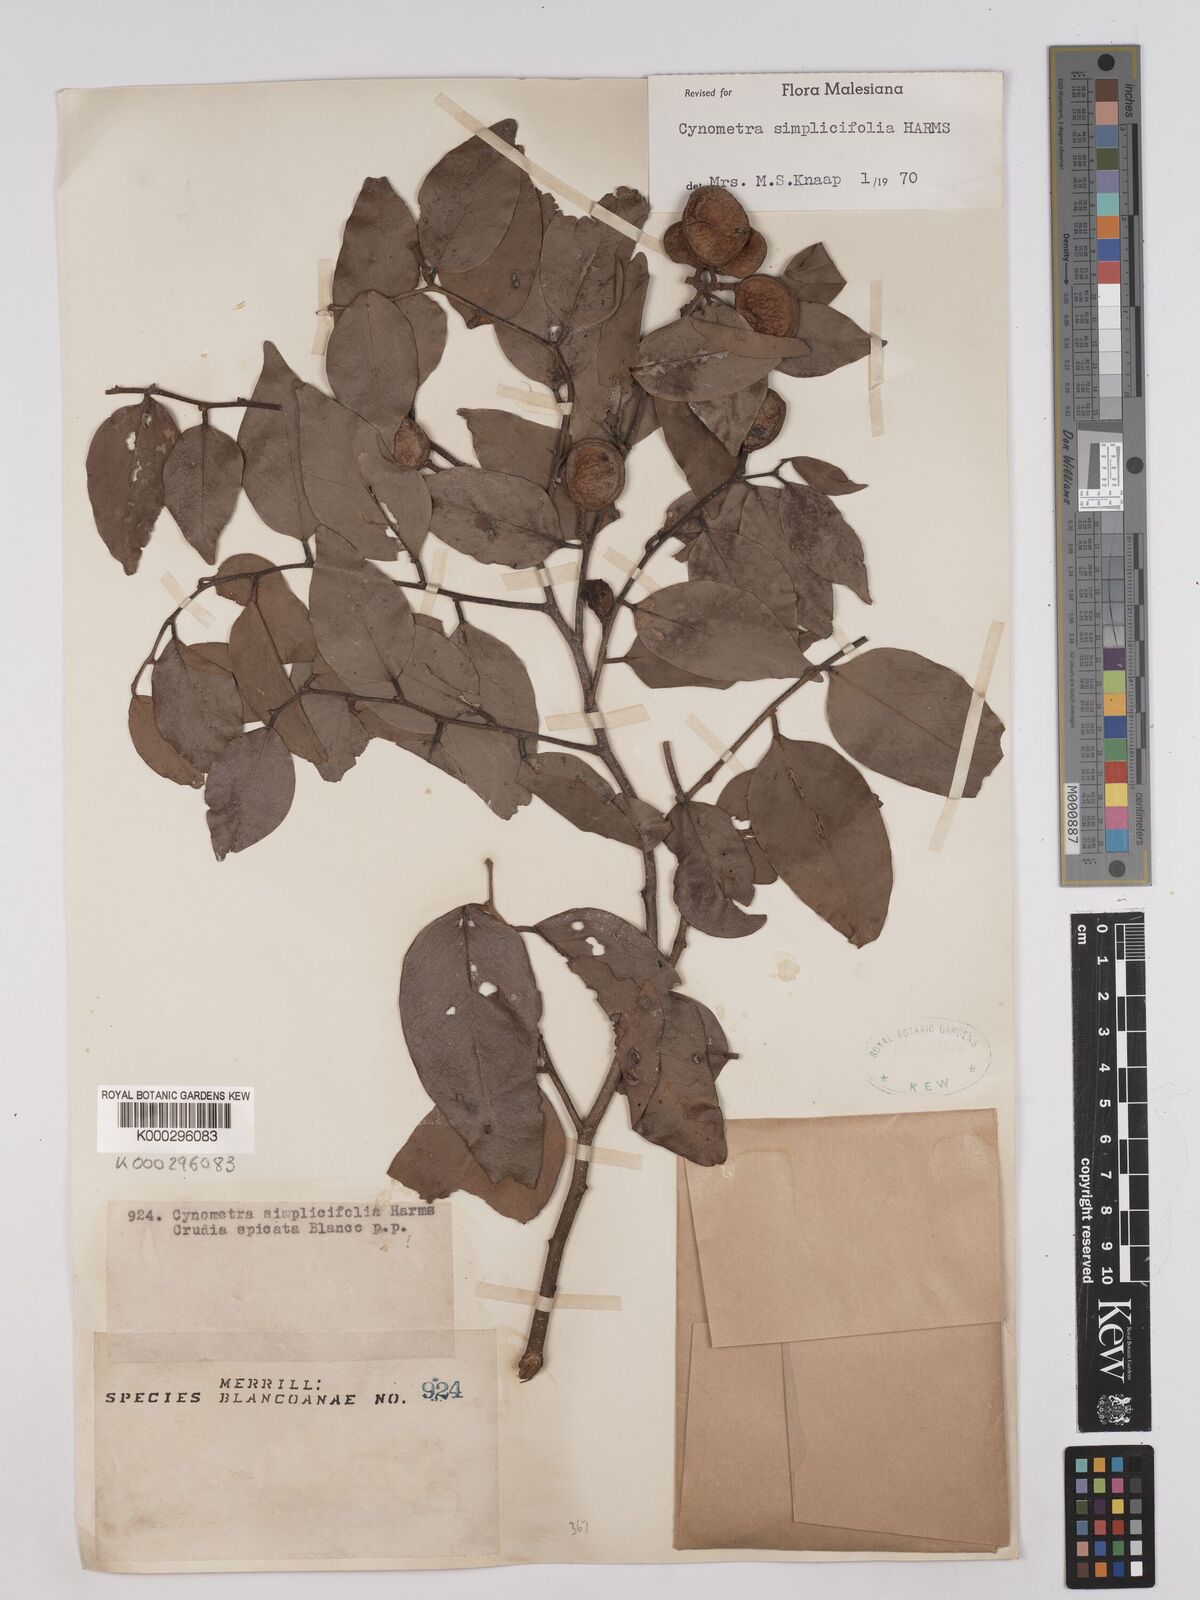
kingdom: Plantae
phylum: Tracheophyta
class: Magnoliopsida
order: Fabales
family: Fabaceae
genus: Cynometra
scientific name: Cynometra simplicifolia
